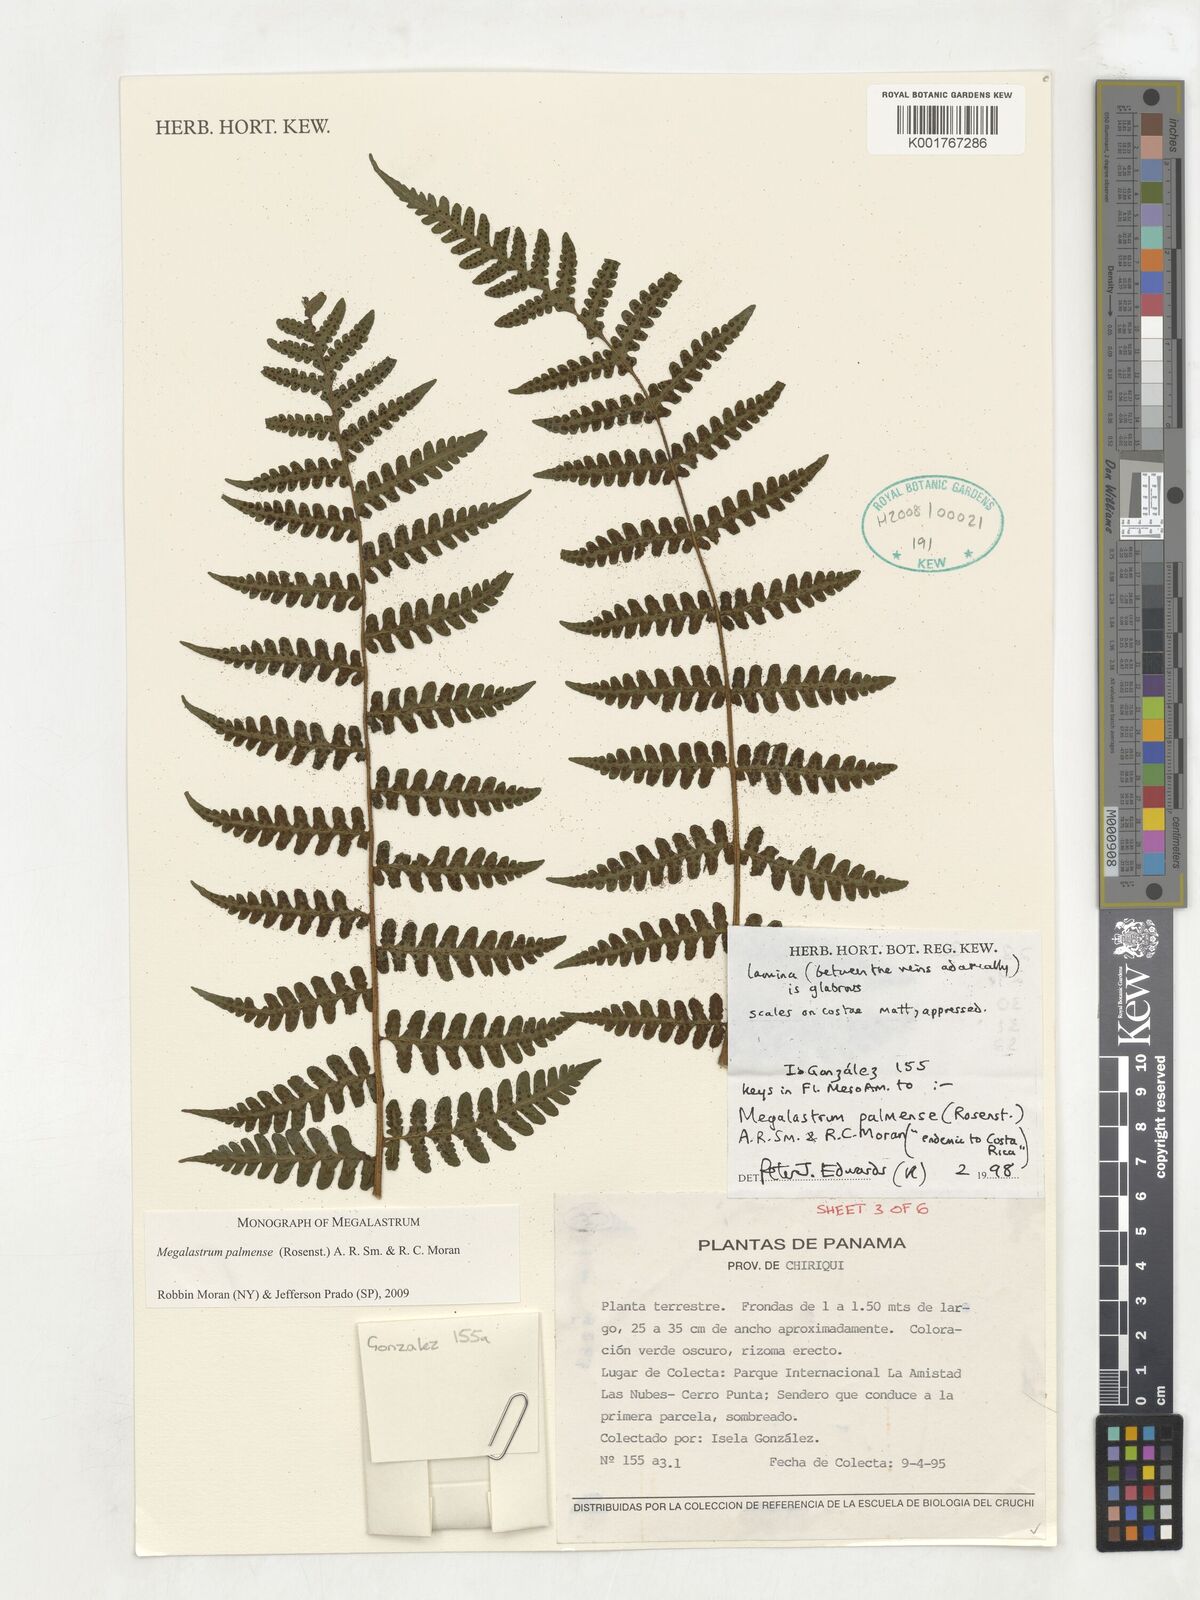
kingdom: Plantae
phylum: Tracheophyta
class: Polypodiopsida
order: Polypodiales
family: Dryopteridaceae
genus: Megalastrum
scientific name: Megalastrum palmense
